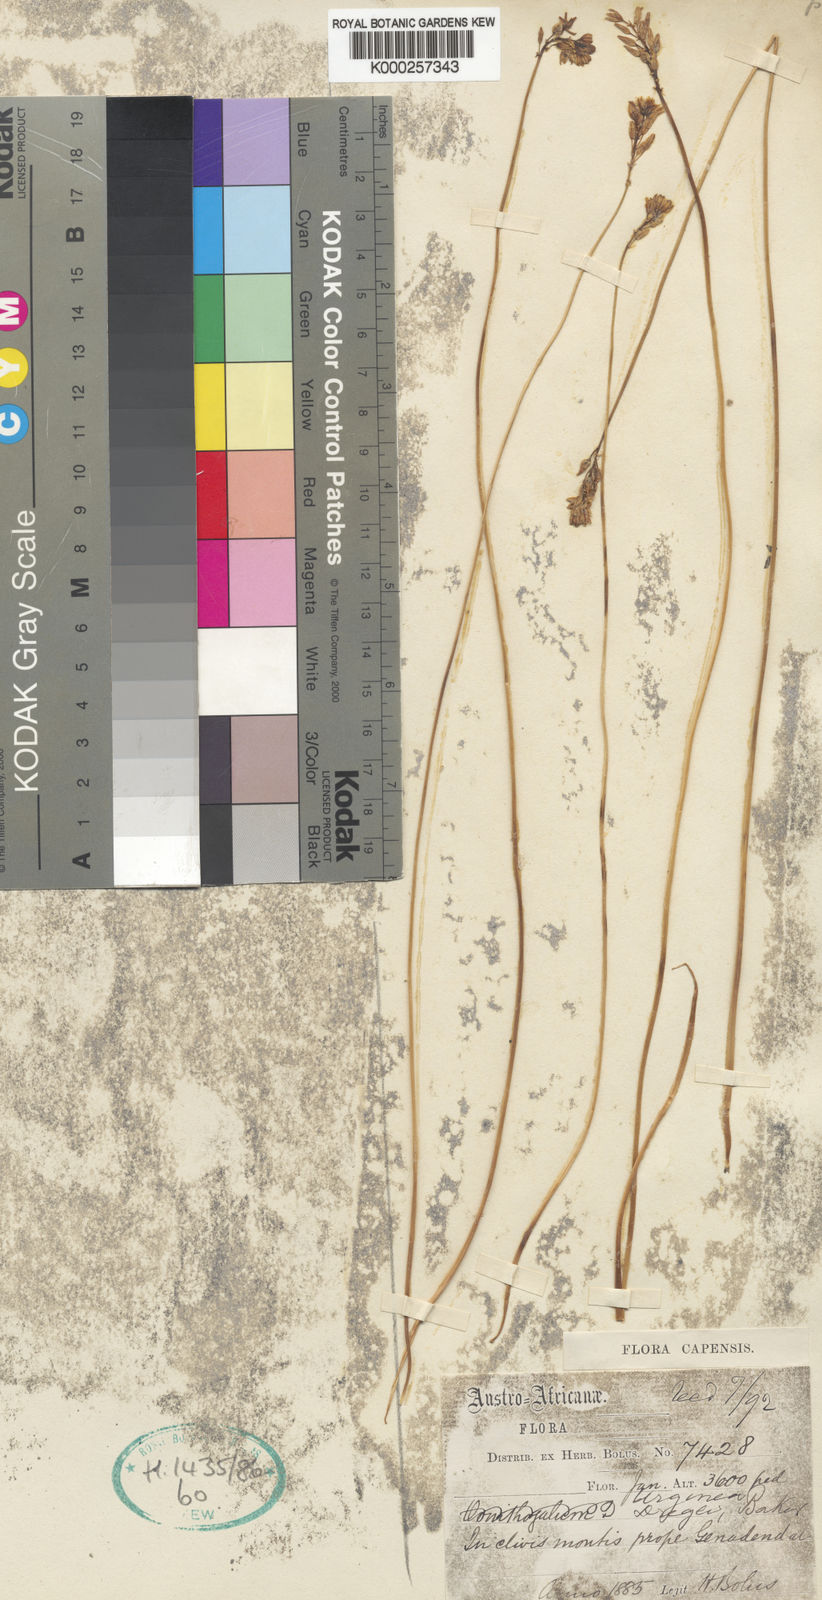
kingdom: Plantae
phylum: Tracheophyta
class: Liliopsida
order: Asparagales
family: Asparagaceae
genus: Drimia
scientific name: Drimia dregei
